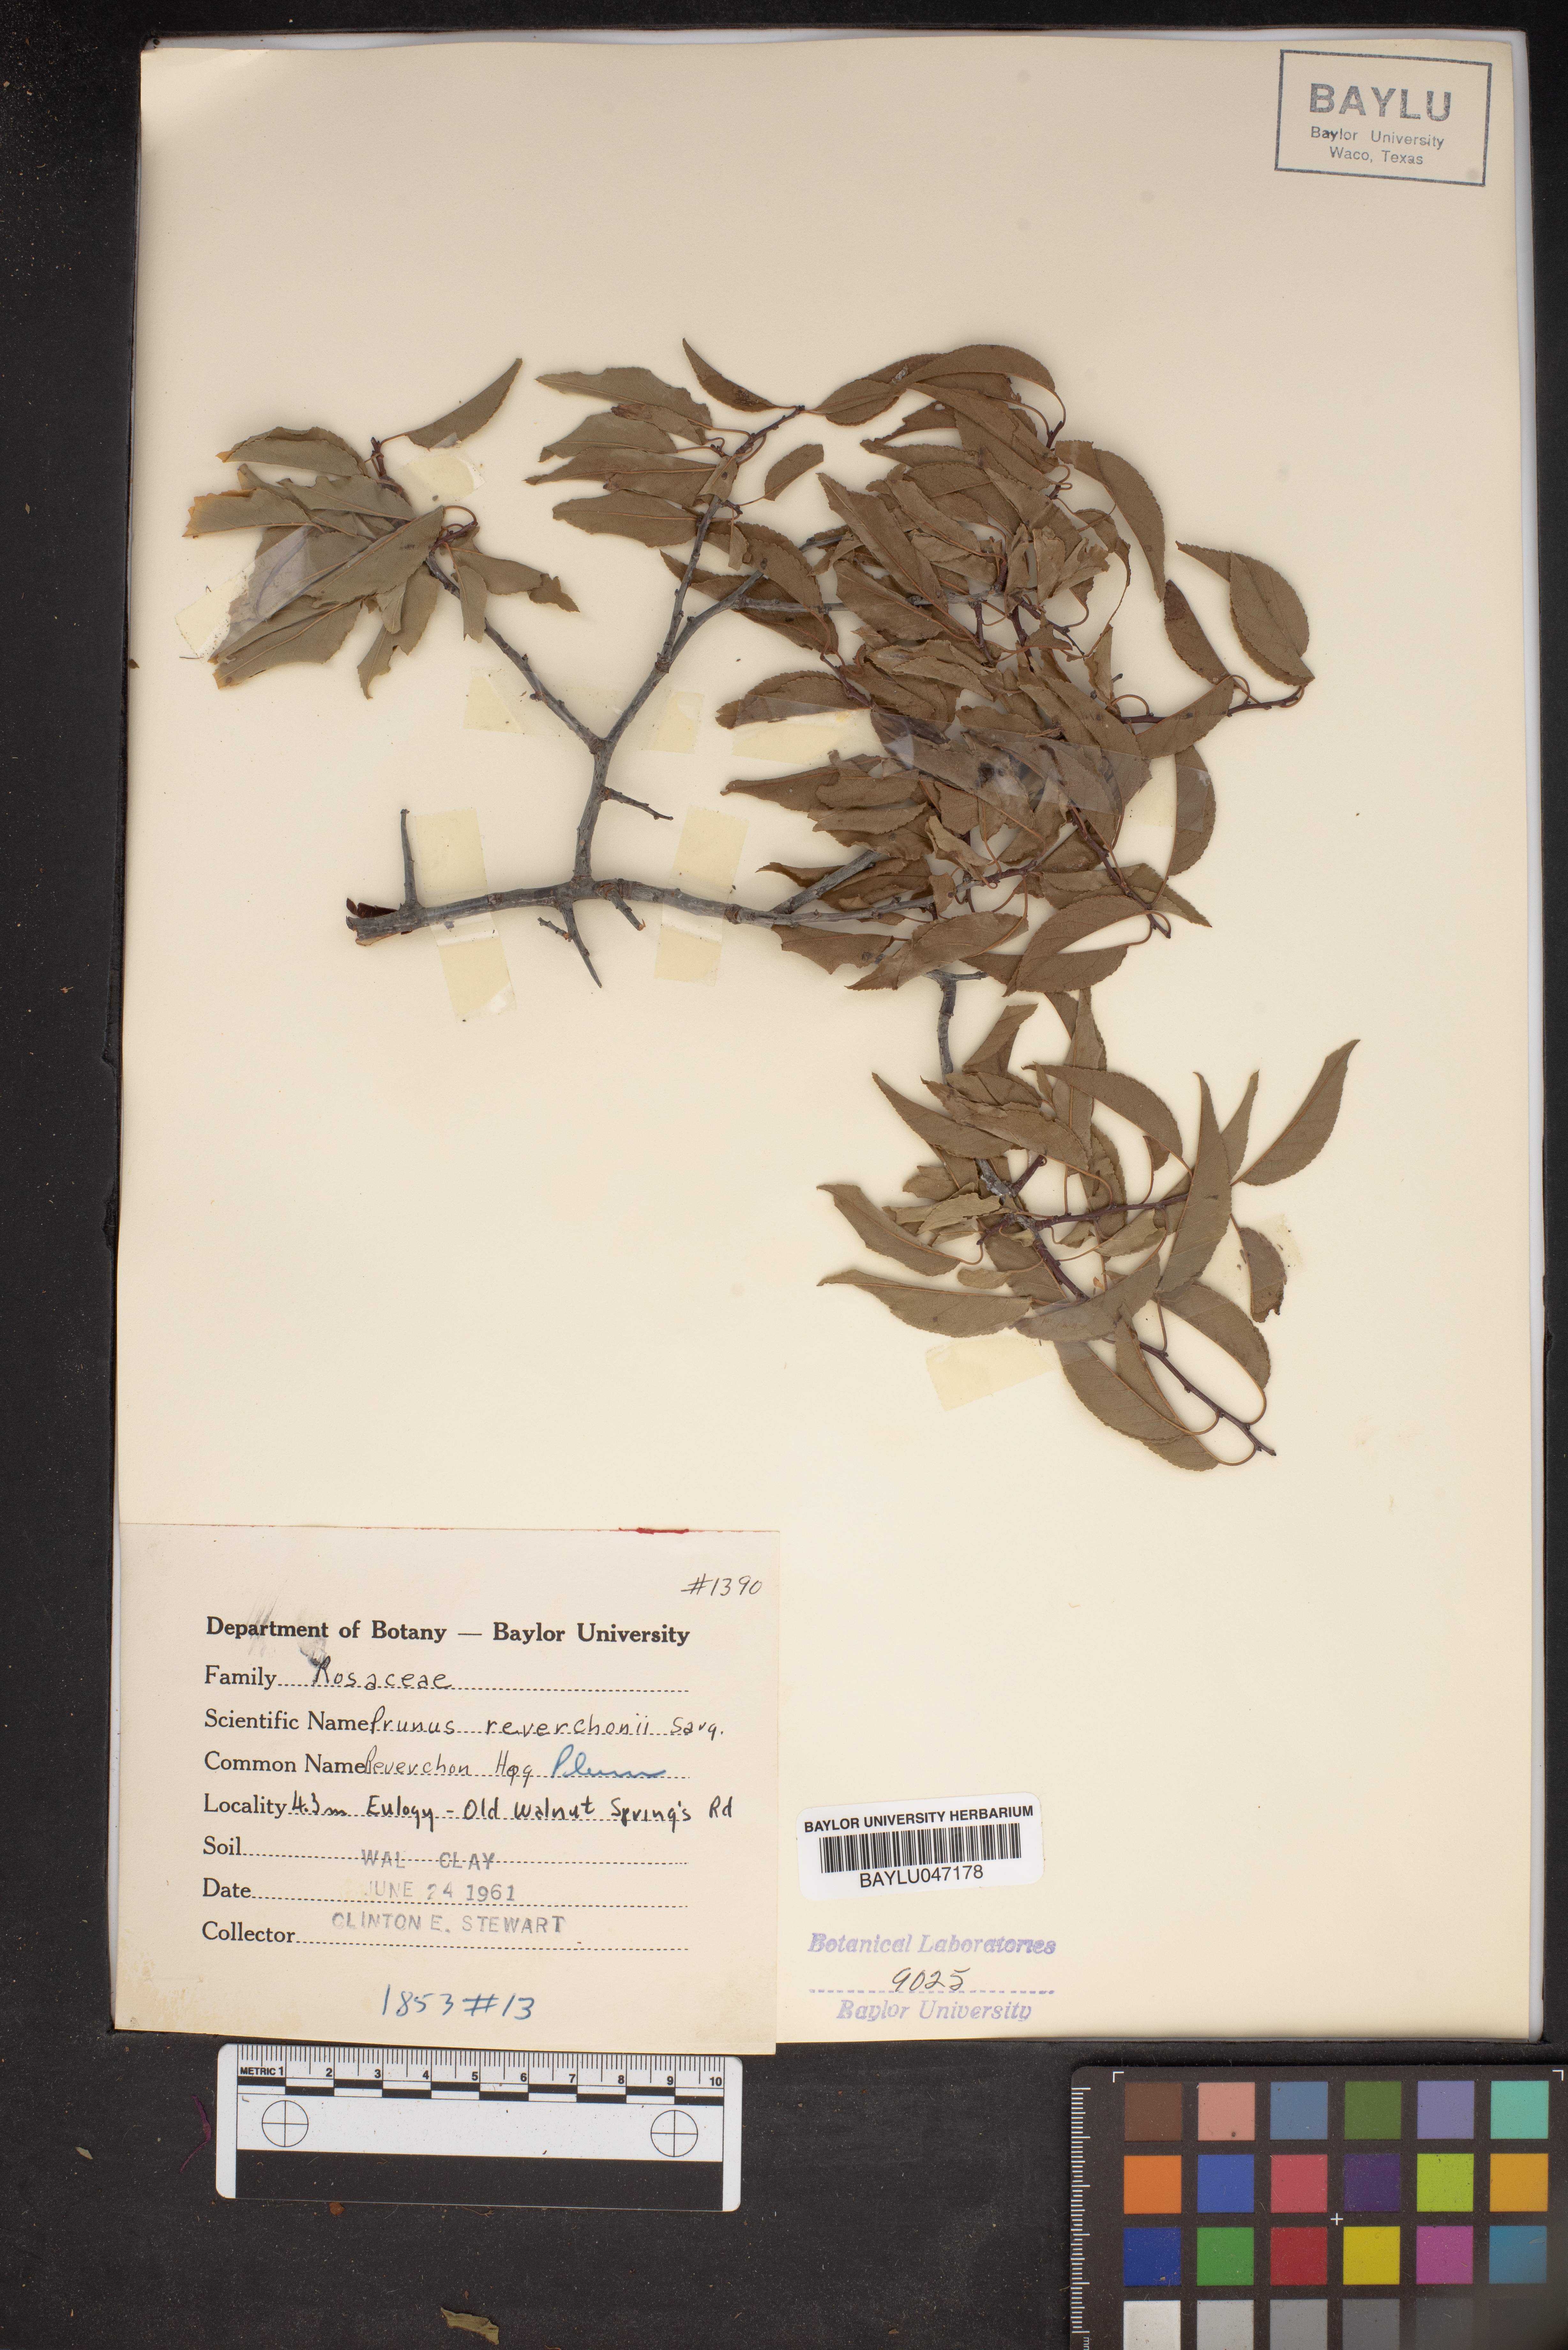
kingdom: Plantae
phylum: Tracheophyta
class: Magnoliopsida
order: Rosales
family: Rosaceae
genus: Prunus
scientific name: Prunus rivularis
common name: Creek plum
